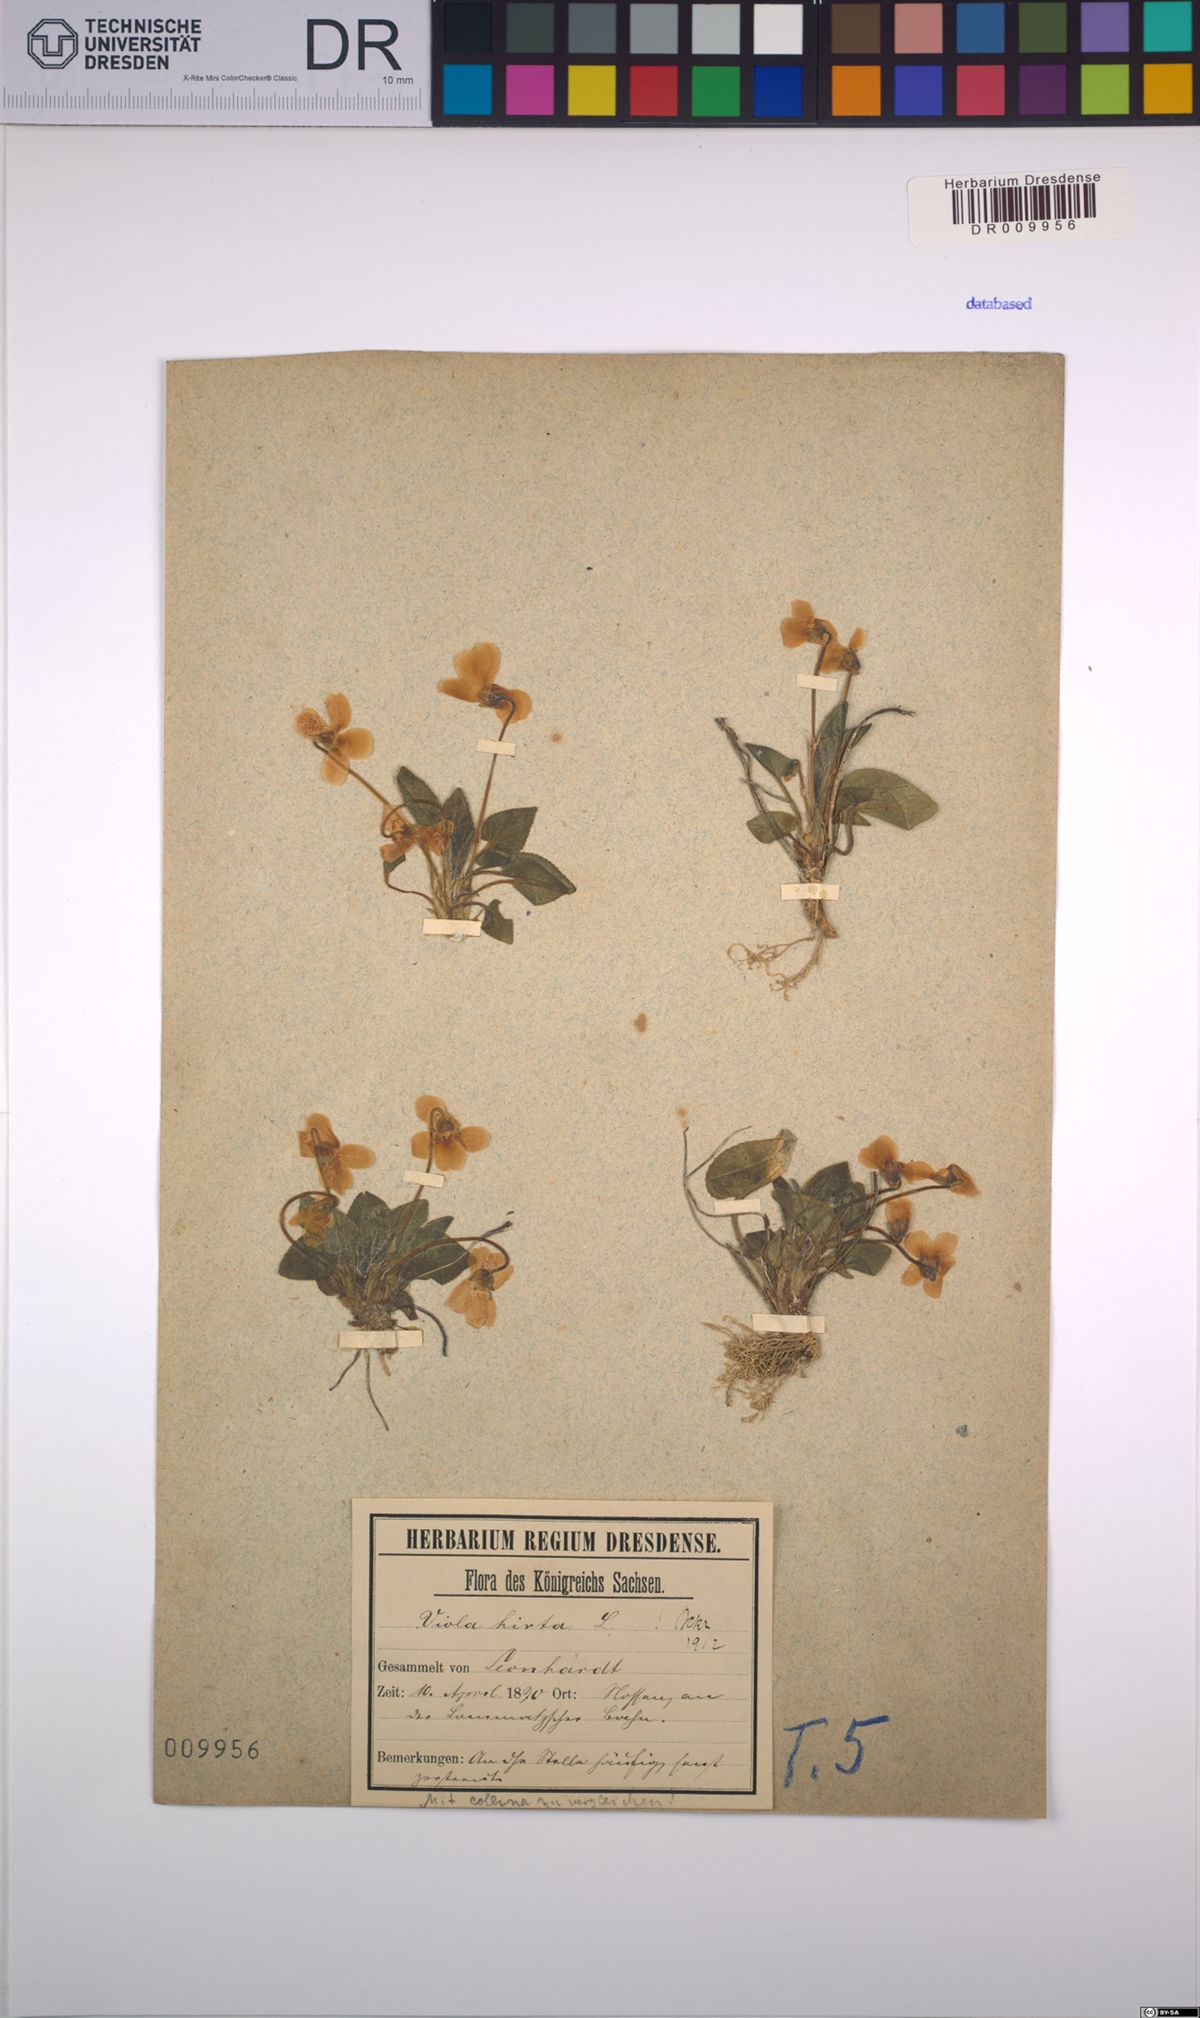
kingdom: Plantae
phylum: Tracheophyta
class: Magnoliopsida
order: Malpighiales
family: Violaceae
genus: Viola
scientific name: Viola hirta
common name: Hairy violet
